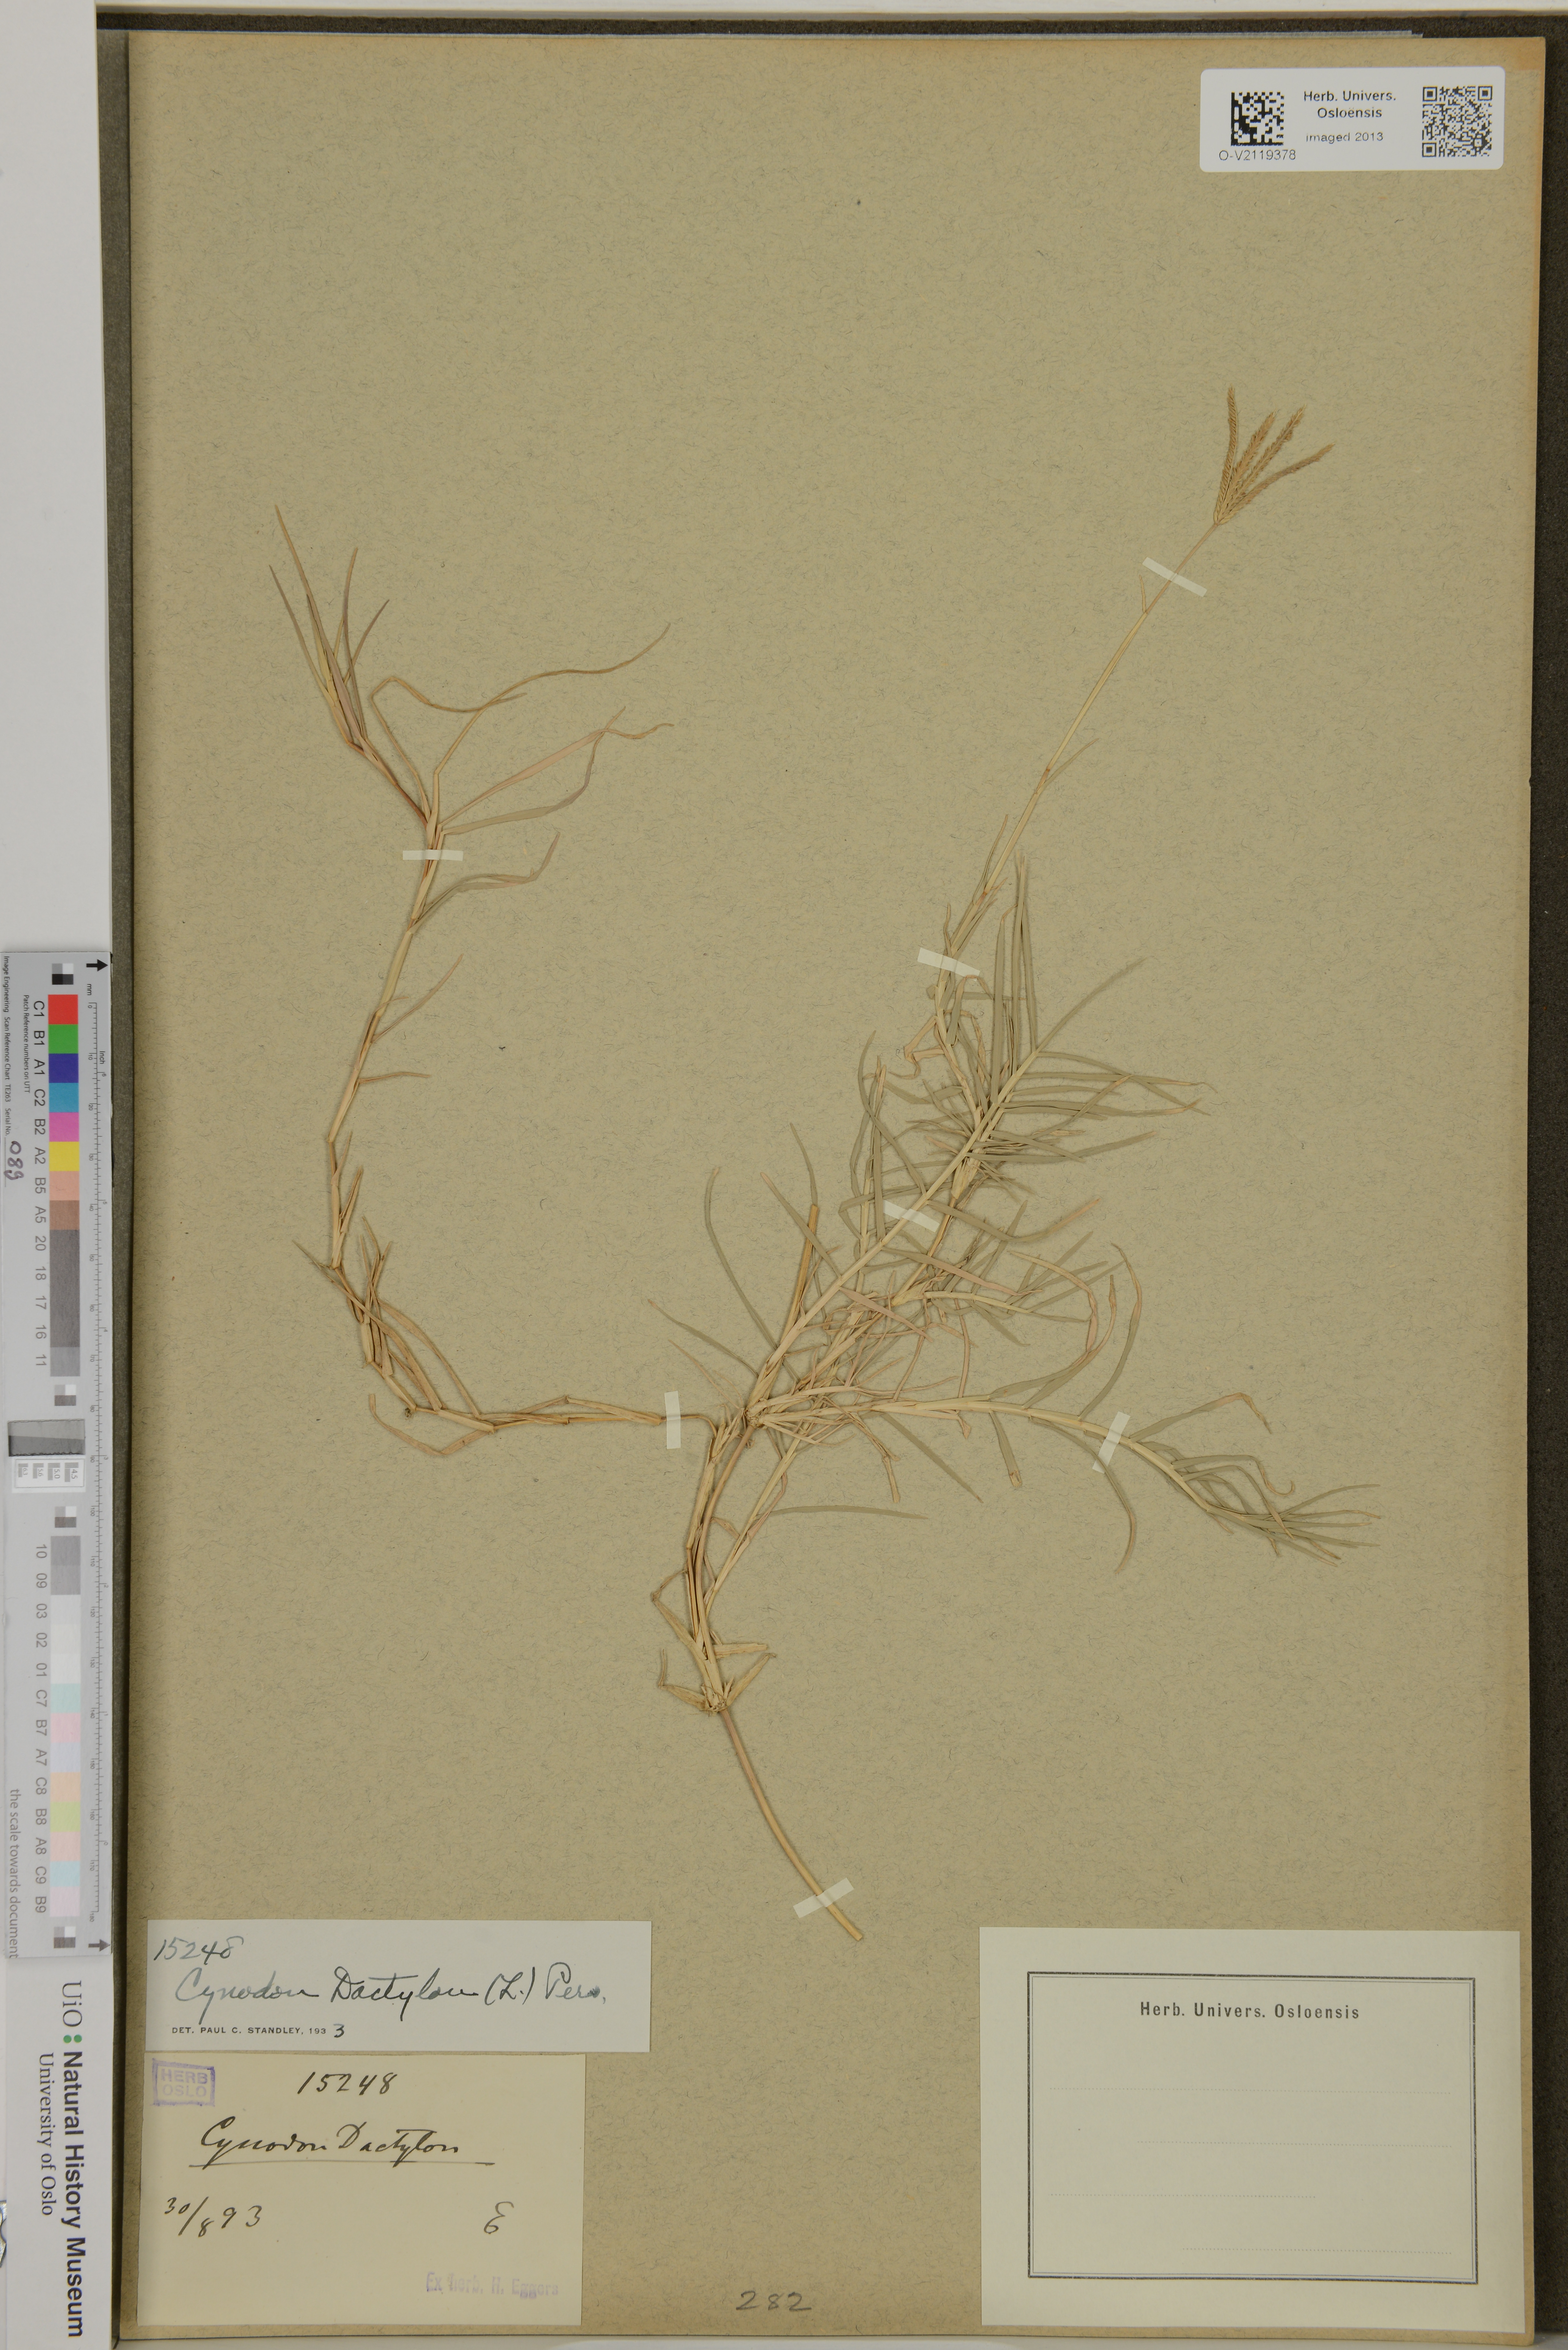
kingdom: Plantae
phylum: Tracheophyta
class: Liliopsida
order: Poales
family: Poaceae
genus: Cynodon
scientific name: Cynodon dactylon
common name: Bermuda grass
